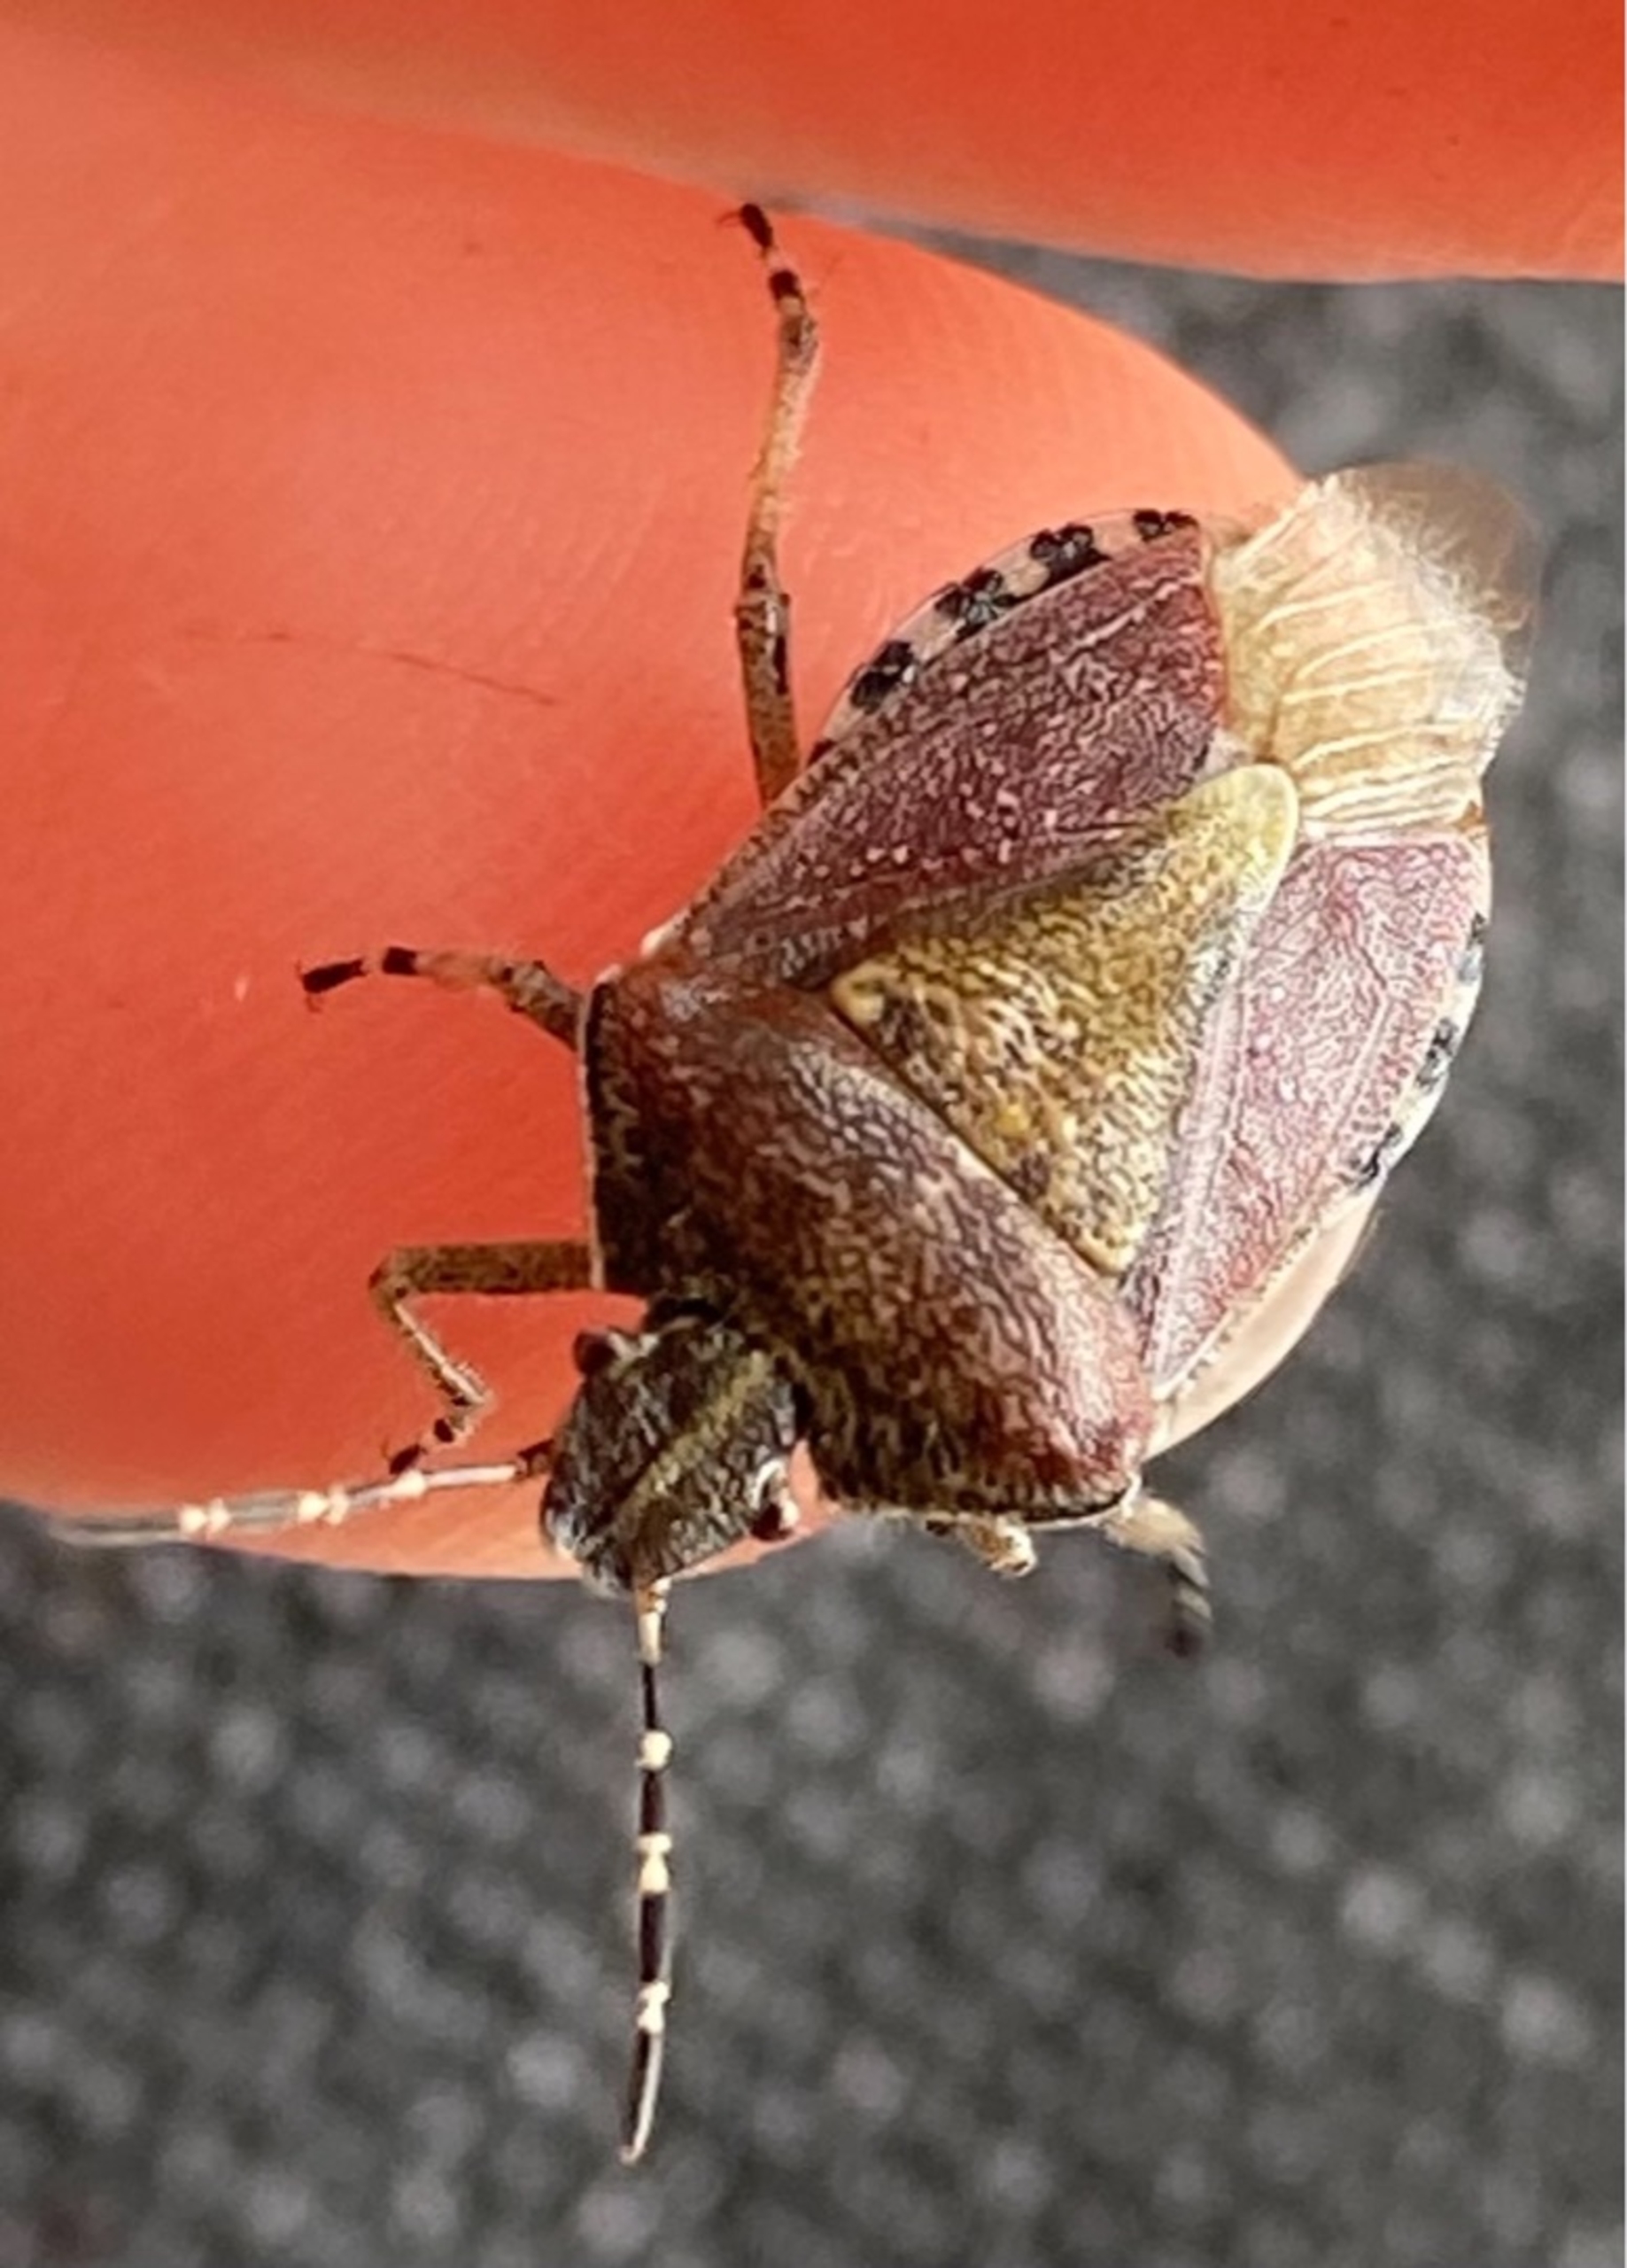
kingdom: Animalia
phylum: Arthropoda
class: Insecta
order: Hemiptera
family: Pentatomidae
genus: Dolycoris
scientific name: Dolycoris baccarum
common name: Almindelig bærtæge
